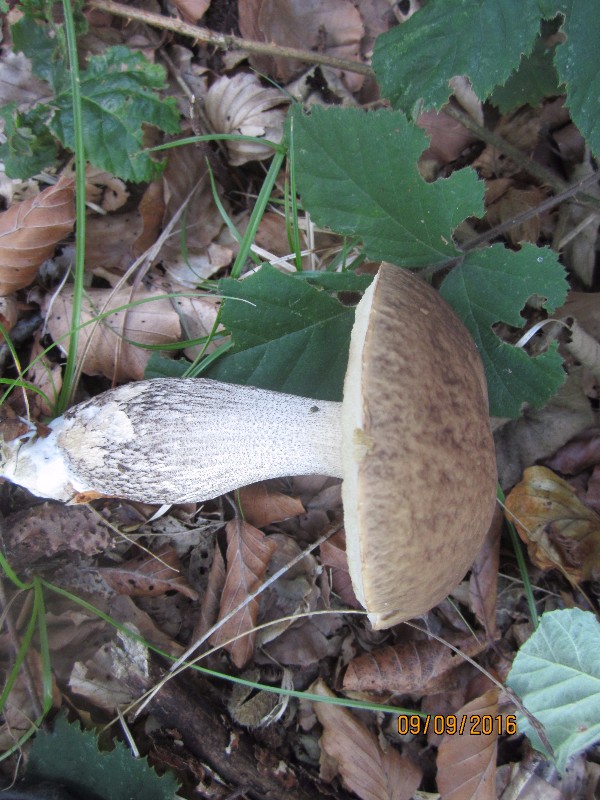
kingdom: Fungi
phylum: Basidiomycota
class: Agaricomycetes
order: Boletales
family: Boletaceae
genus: Leccinellum
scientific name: Leccinellum pseudoscabrum
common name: avnbøg-skælrørhat
